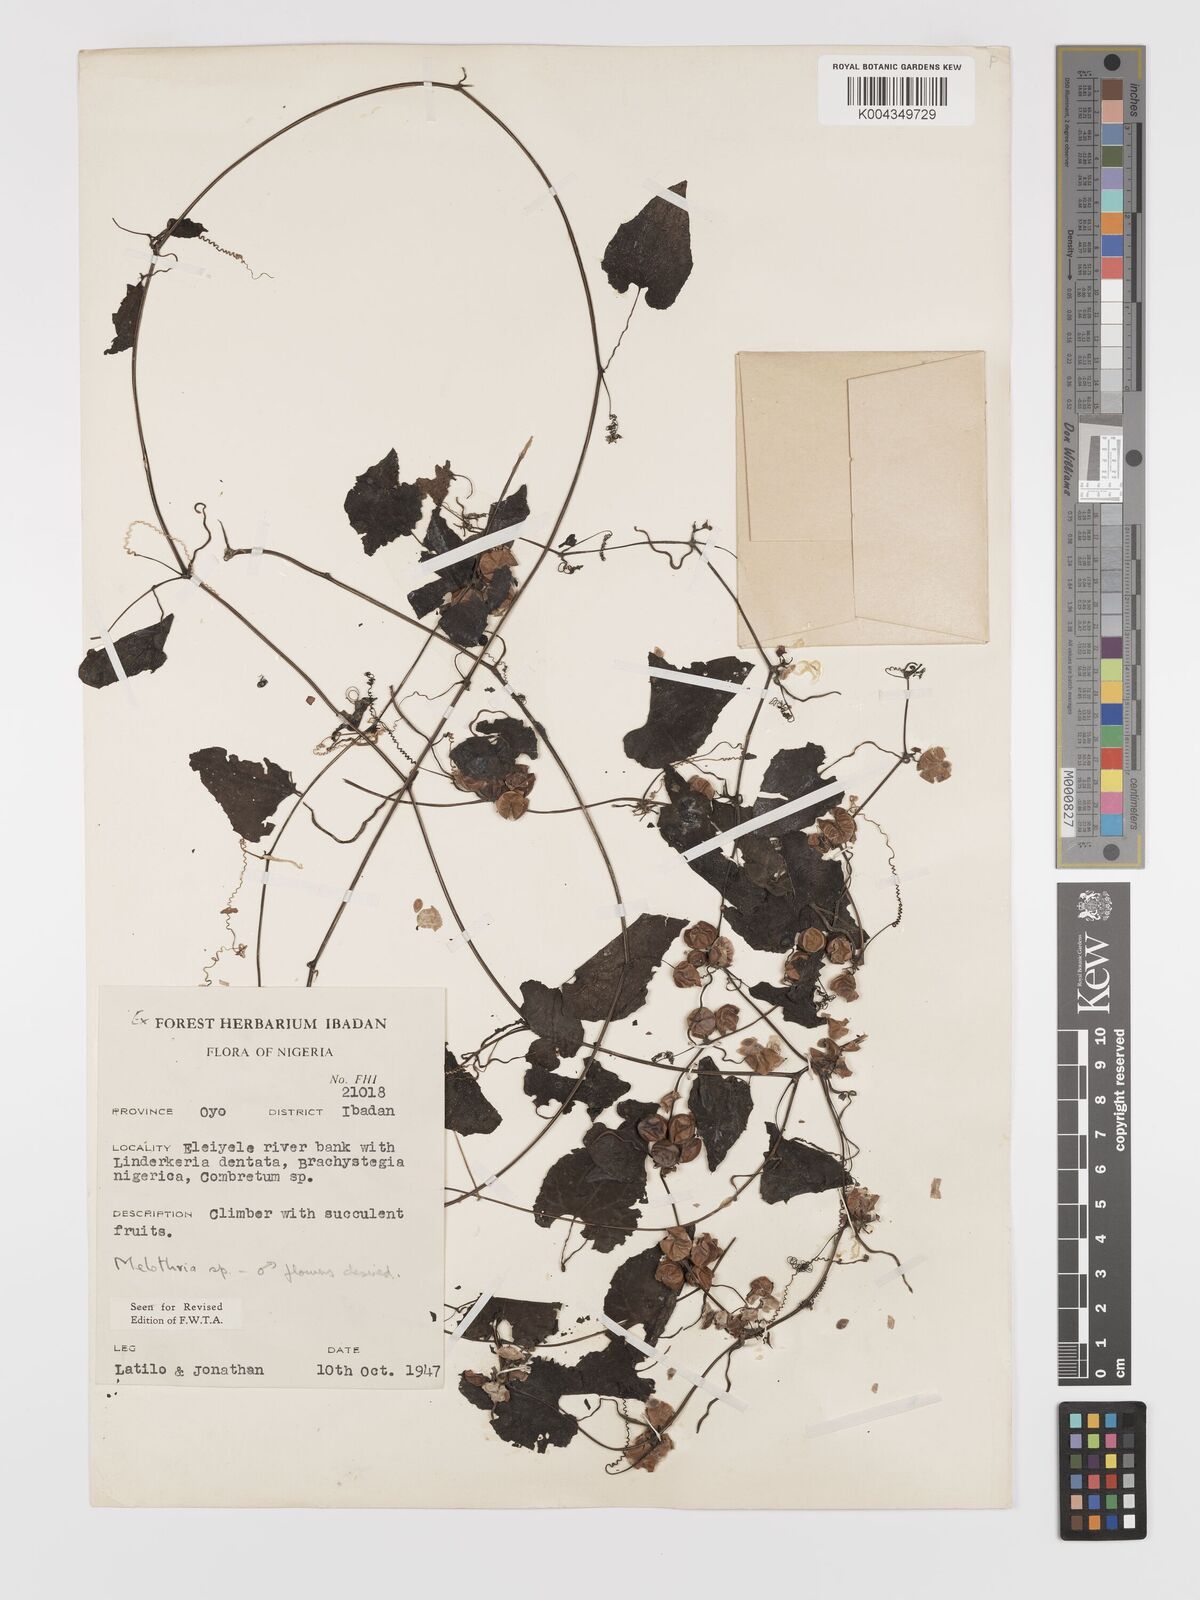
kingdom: Plantae
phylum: Tracheophyta
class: Magnoliopsida
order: Cucurbitales
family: Cucurbitaceae
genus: Zehneria
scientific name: Zehneria scabra
